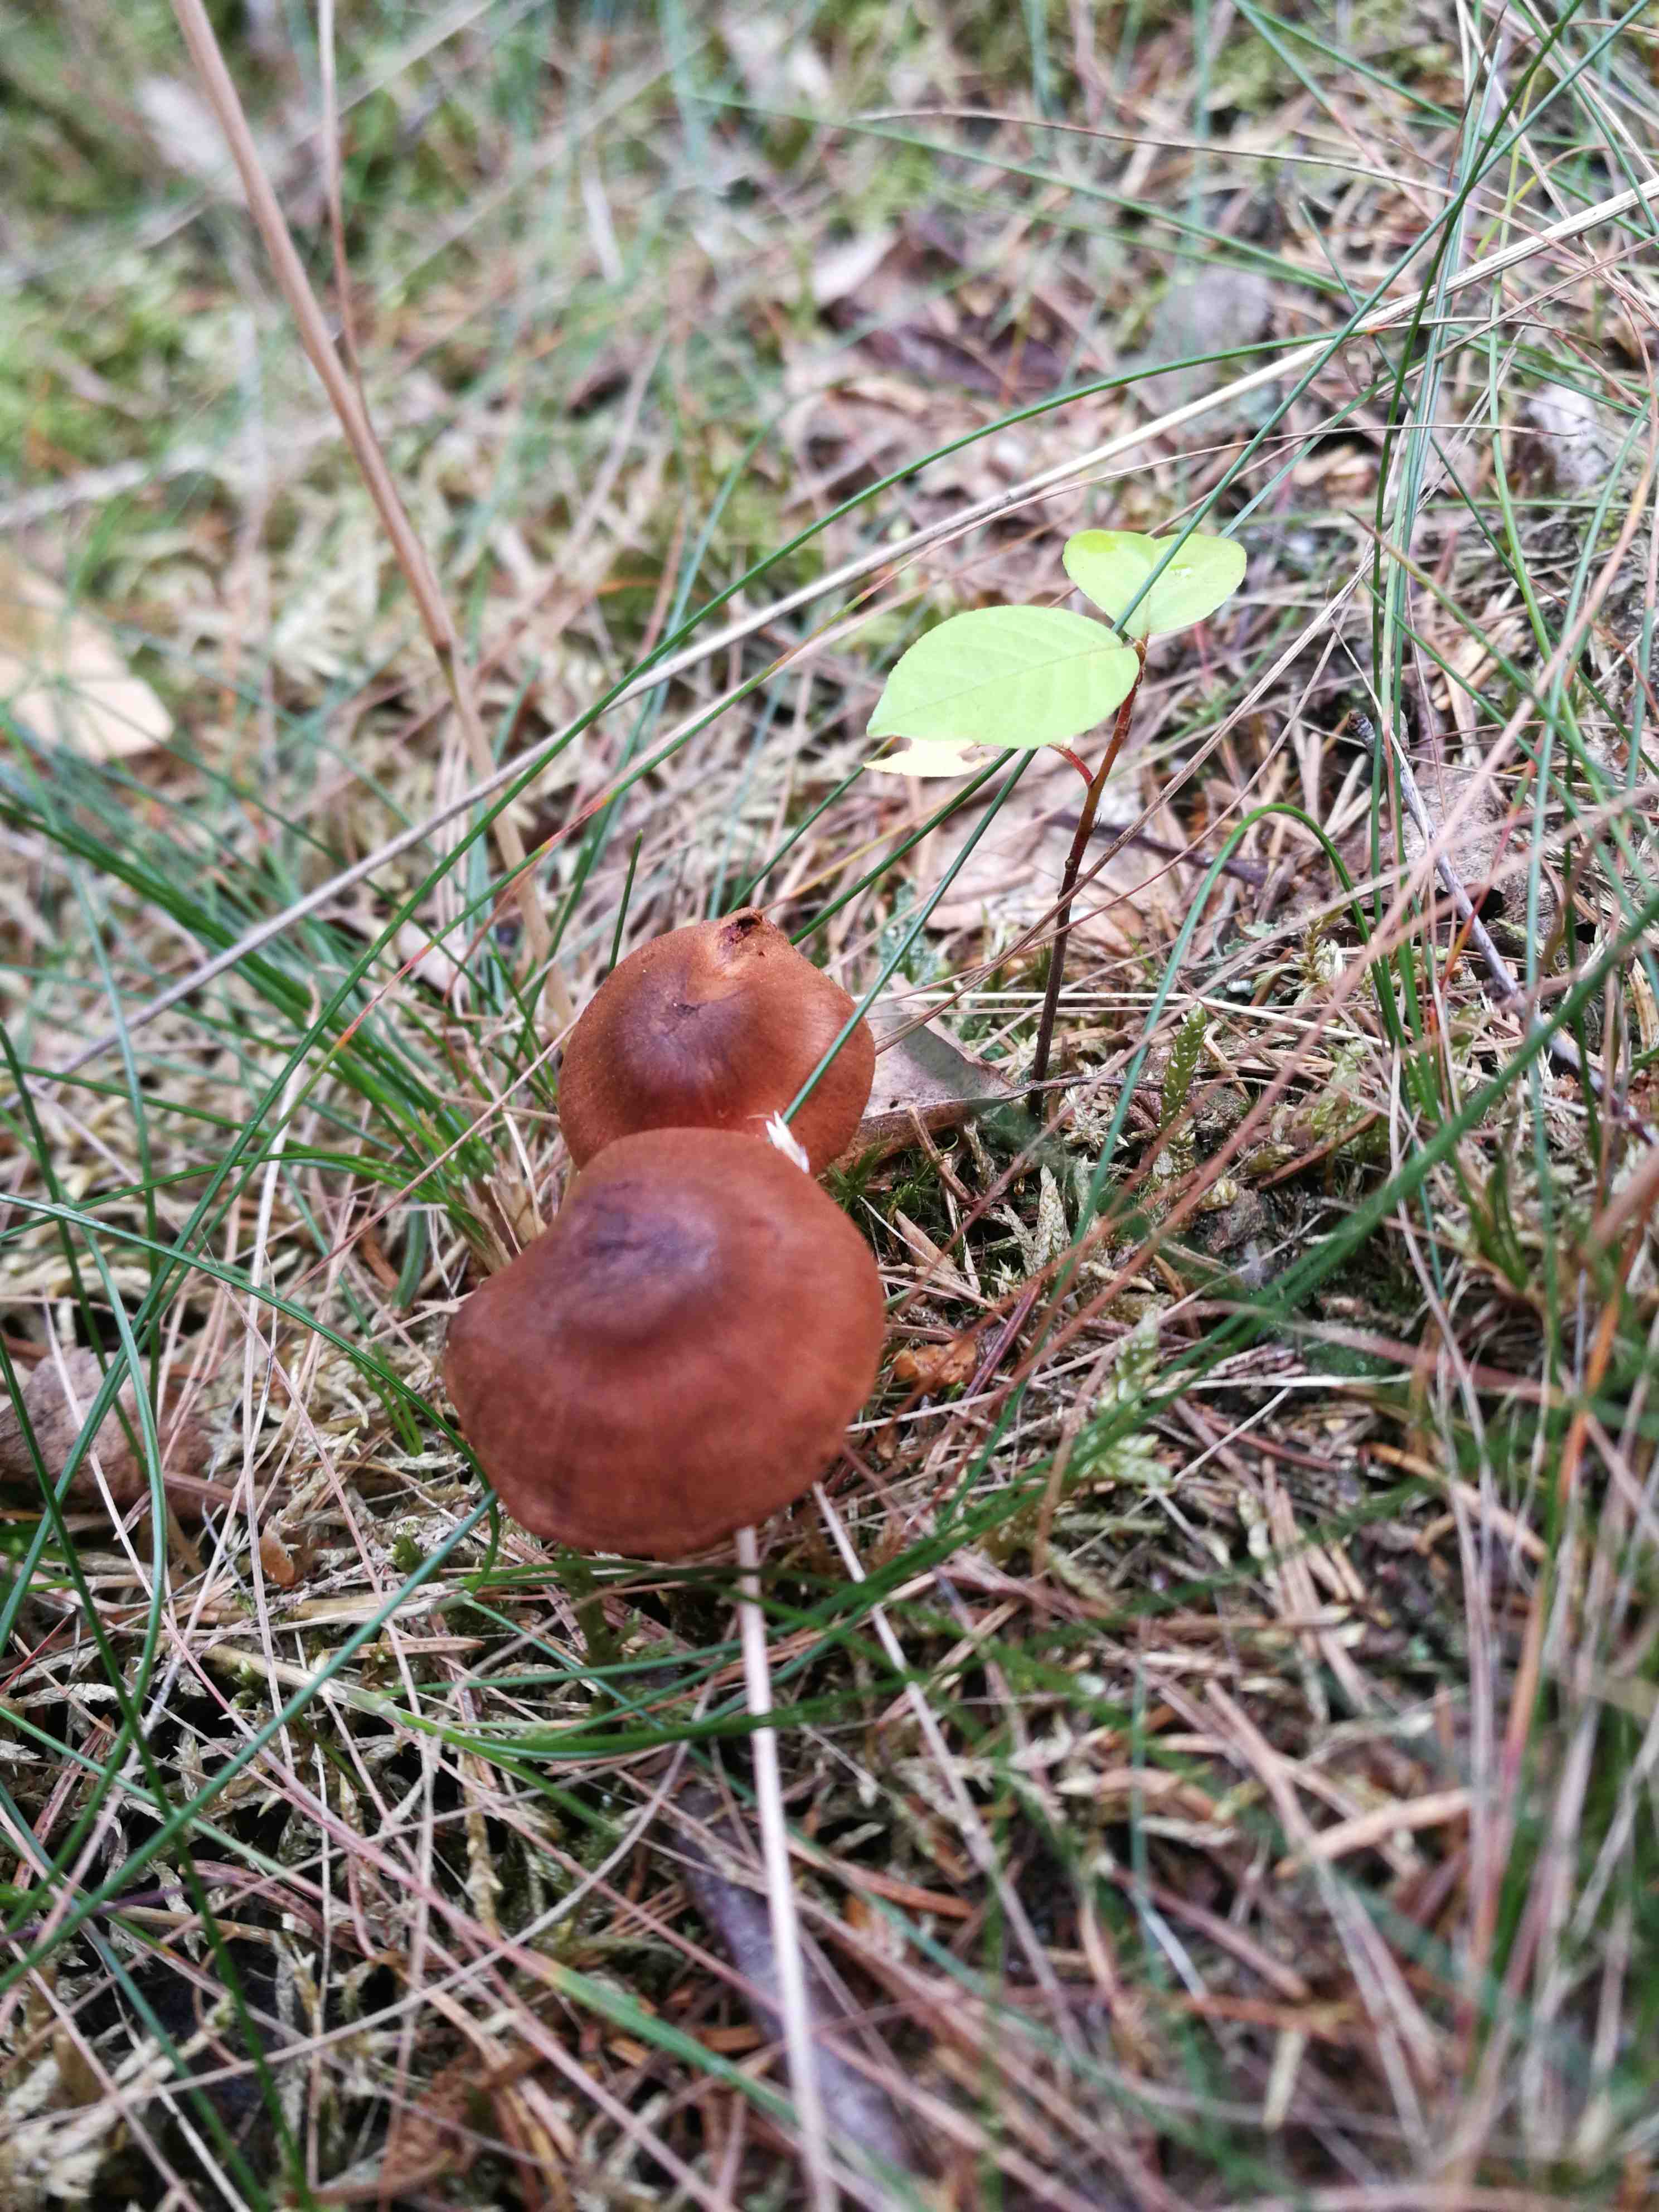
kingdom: Fungi
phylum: Basidiomycota
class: Agaricomycetes
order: Agaricales
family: Cortinariaceae
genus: Cortinarius
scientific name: Cortinarius
